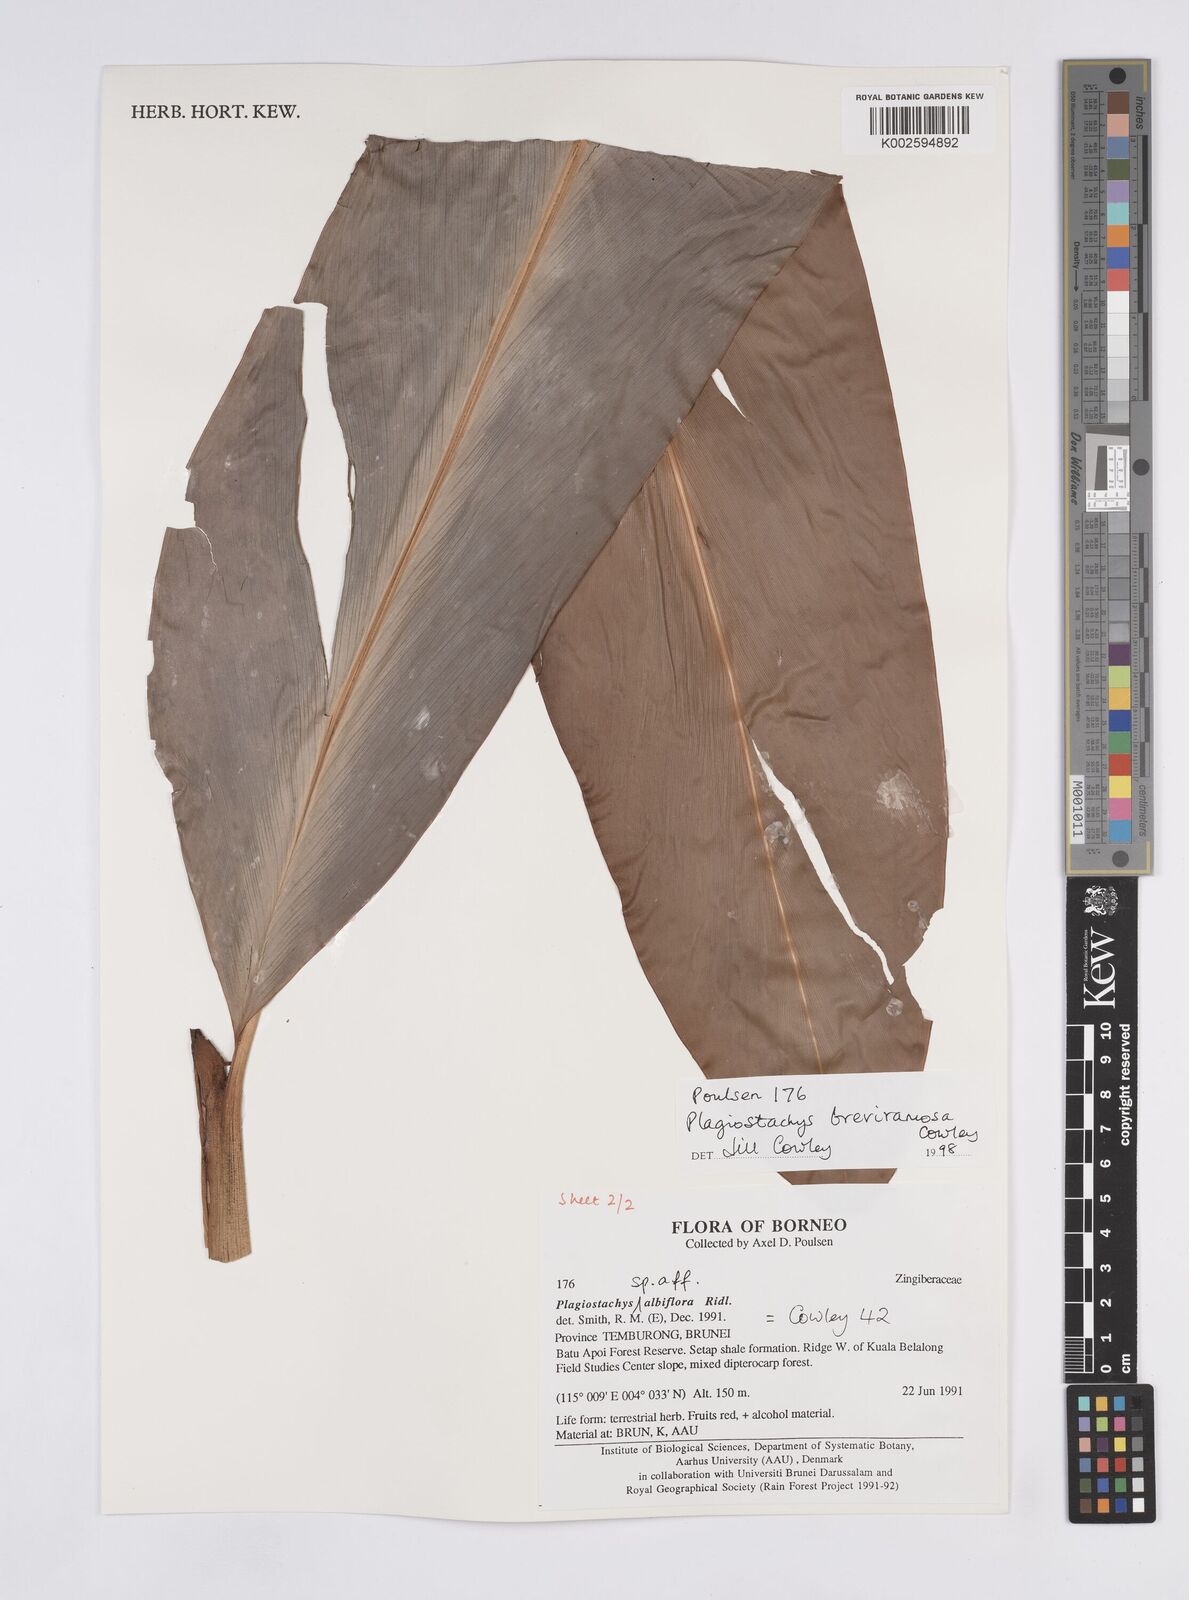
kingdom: Plantae
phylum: Tracheophyta
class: Liliopsida
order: Zingiberales
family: Zingiberaceae
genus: Plagiostachys
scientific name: Plagiostachys breviramosa
